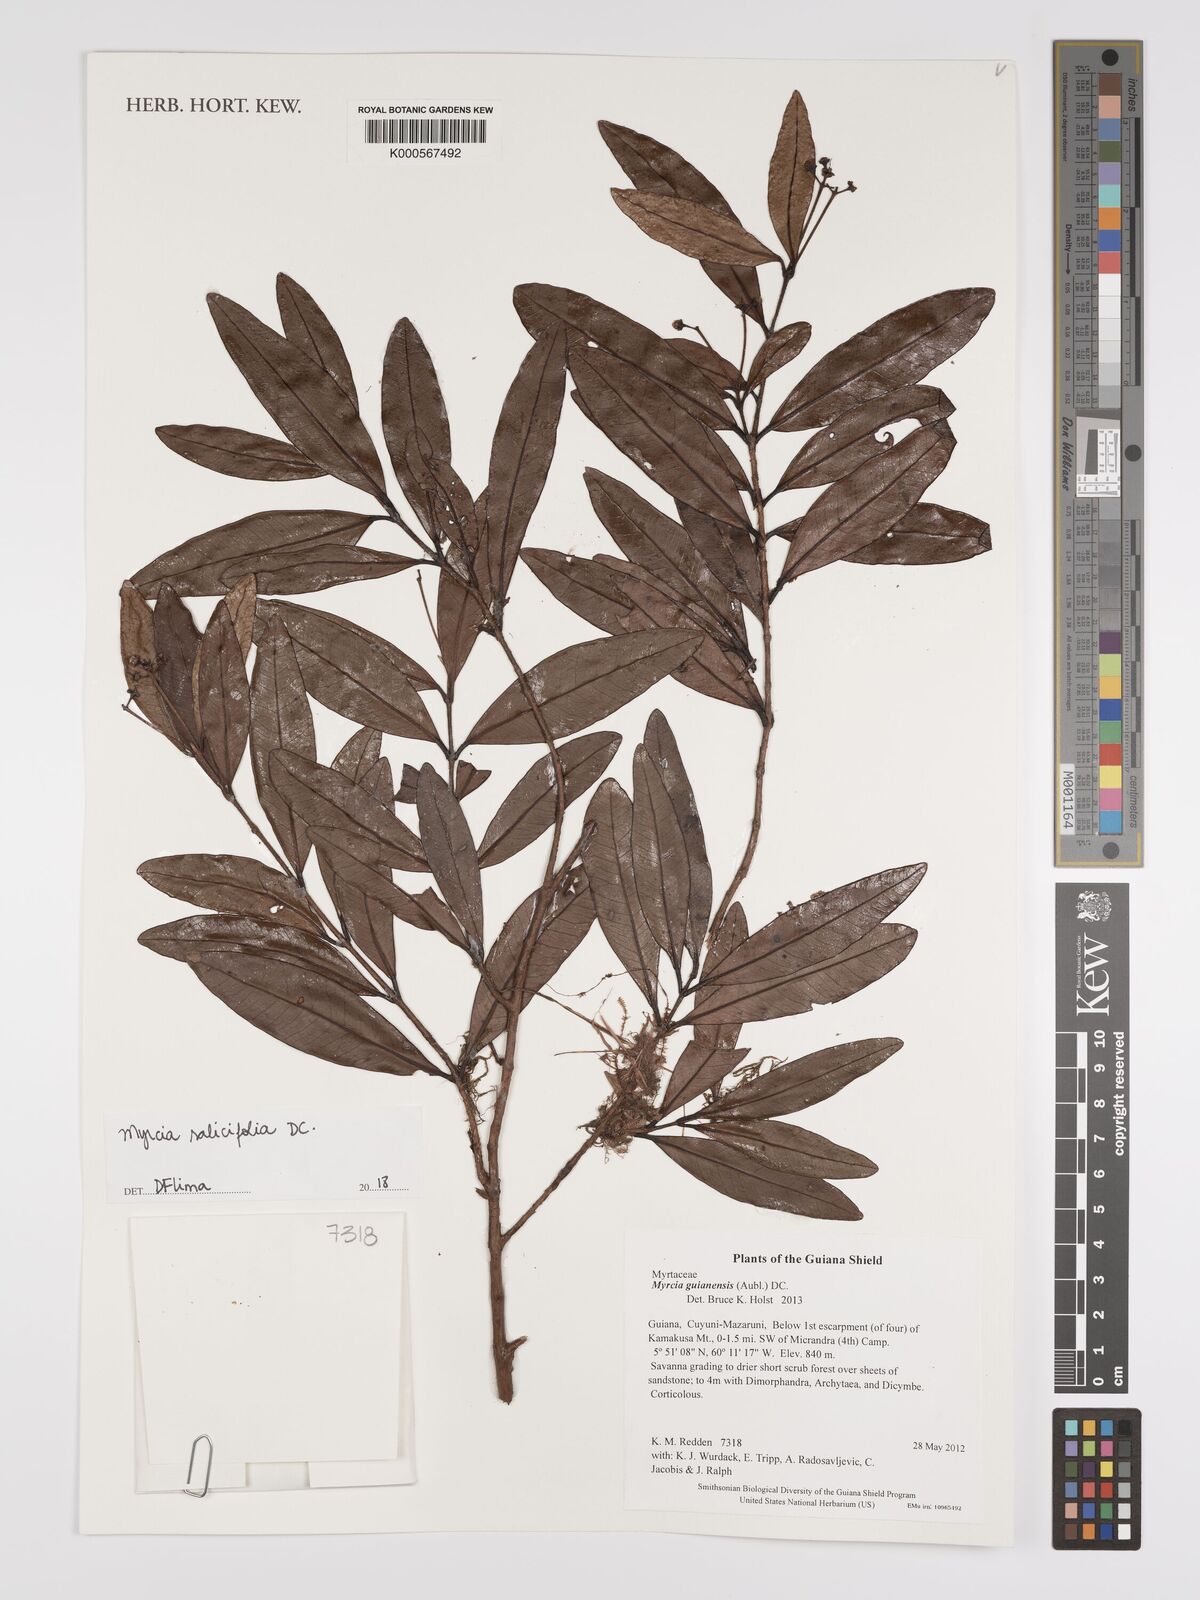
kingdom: Plantae
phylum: Tracheophyta
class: Magnoliopsida
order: Myrtales
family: Myrtaceae
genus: Myrcia
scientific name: Myrcia salicifolia
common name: Insulin plant
